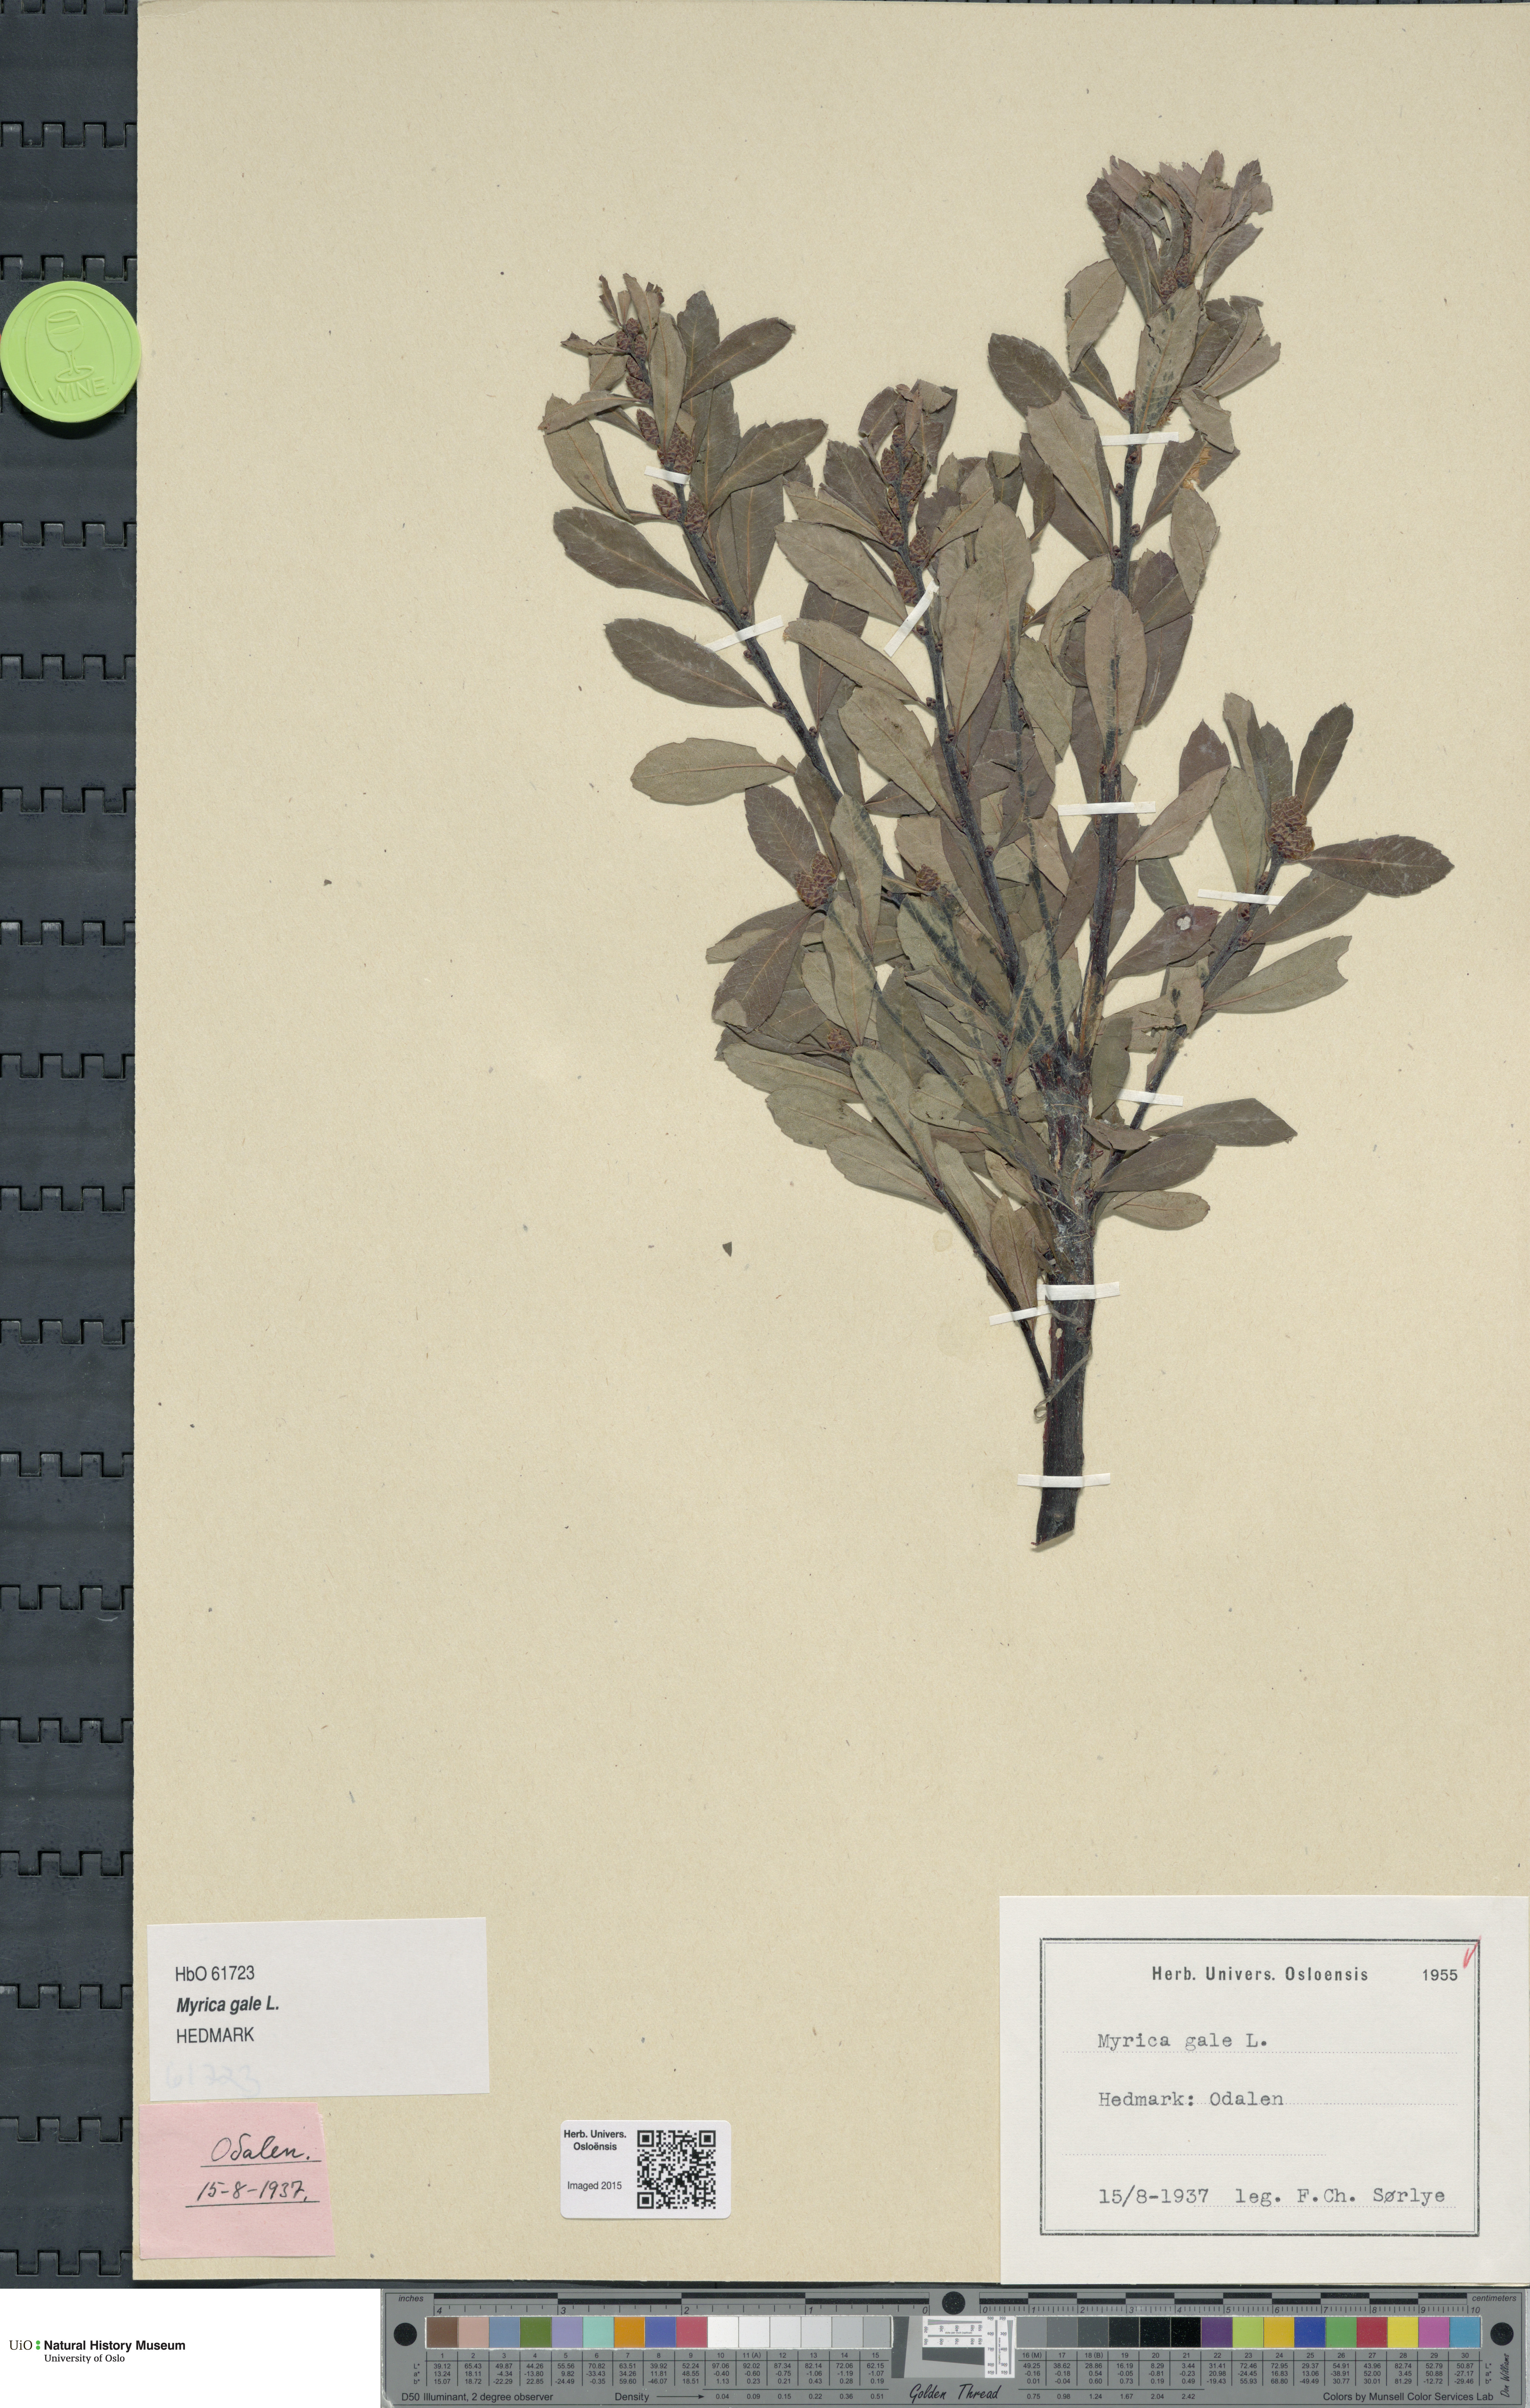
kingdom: Plantae
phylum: Tracheophyta
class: Magnoliopsida
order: Fagales
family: Myricaceae
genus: Myrica
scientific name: Myrica gale
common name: Sweet gale
